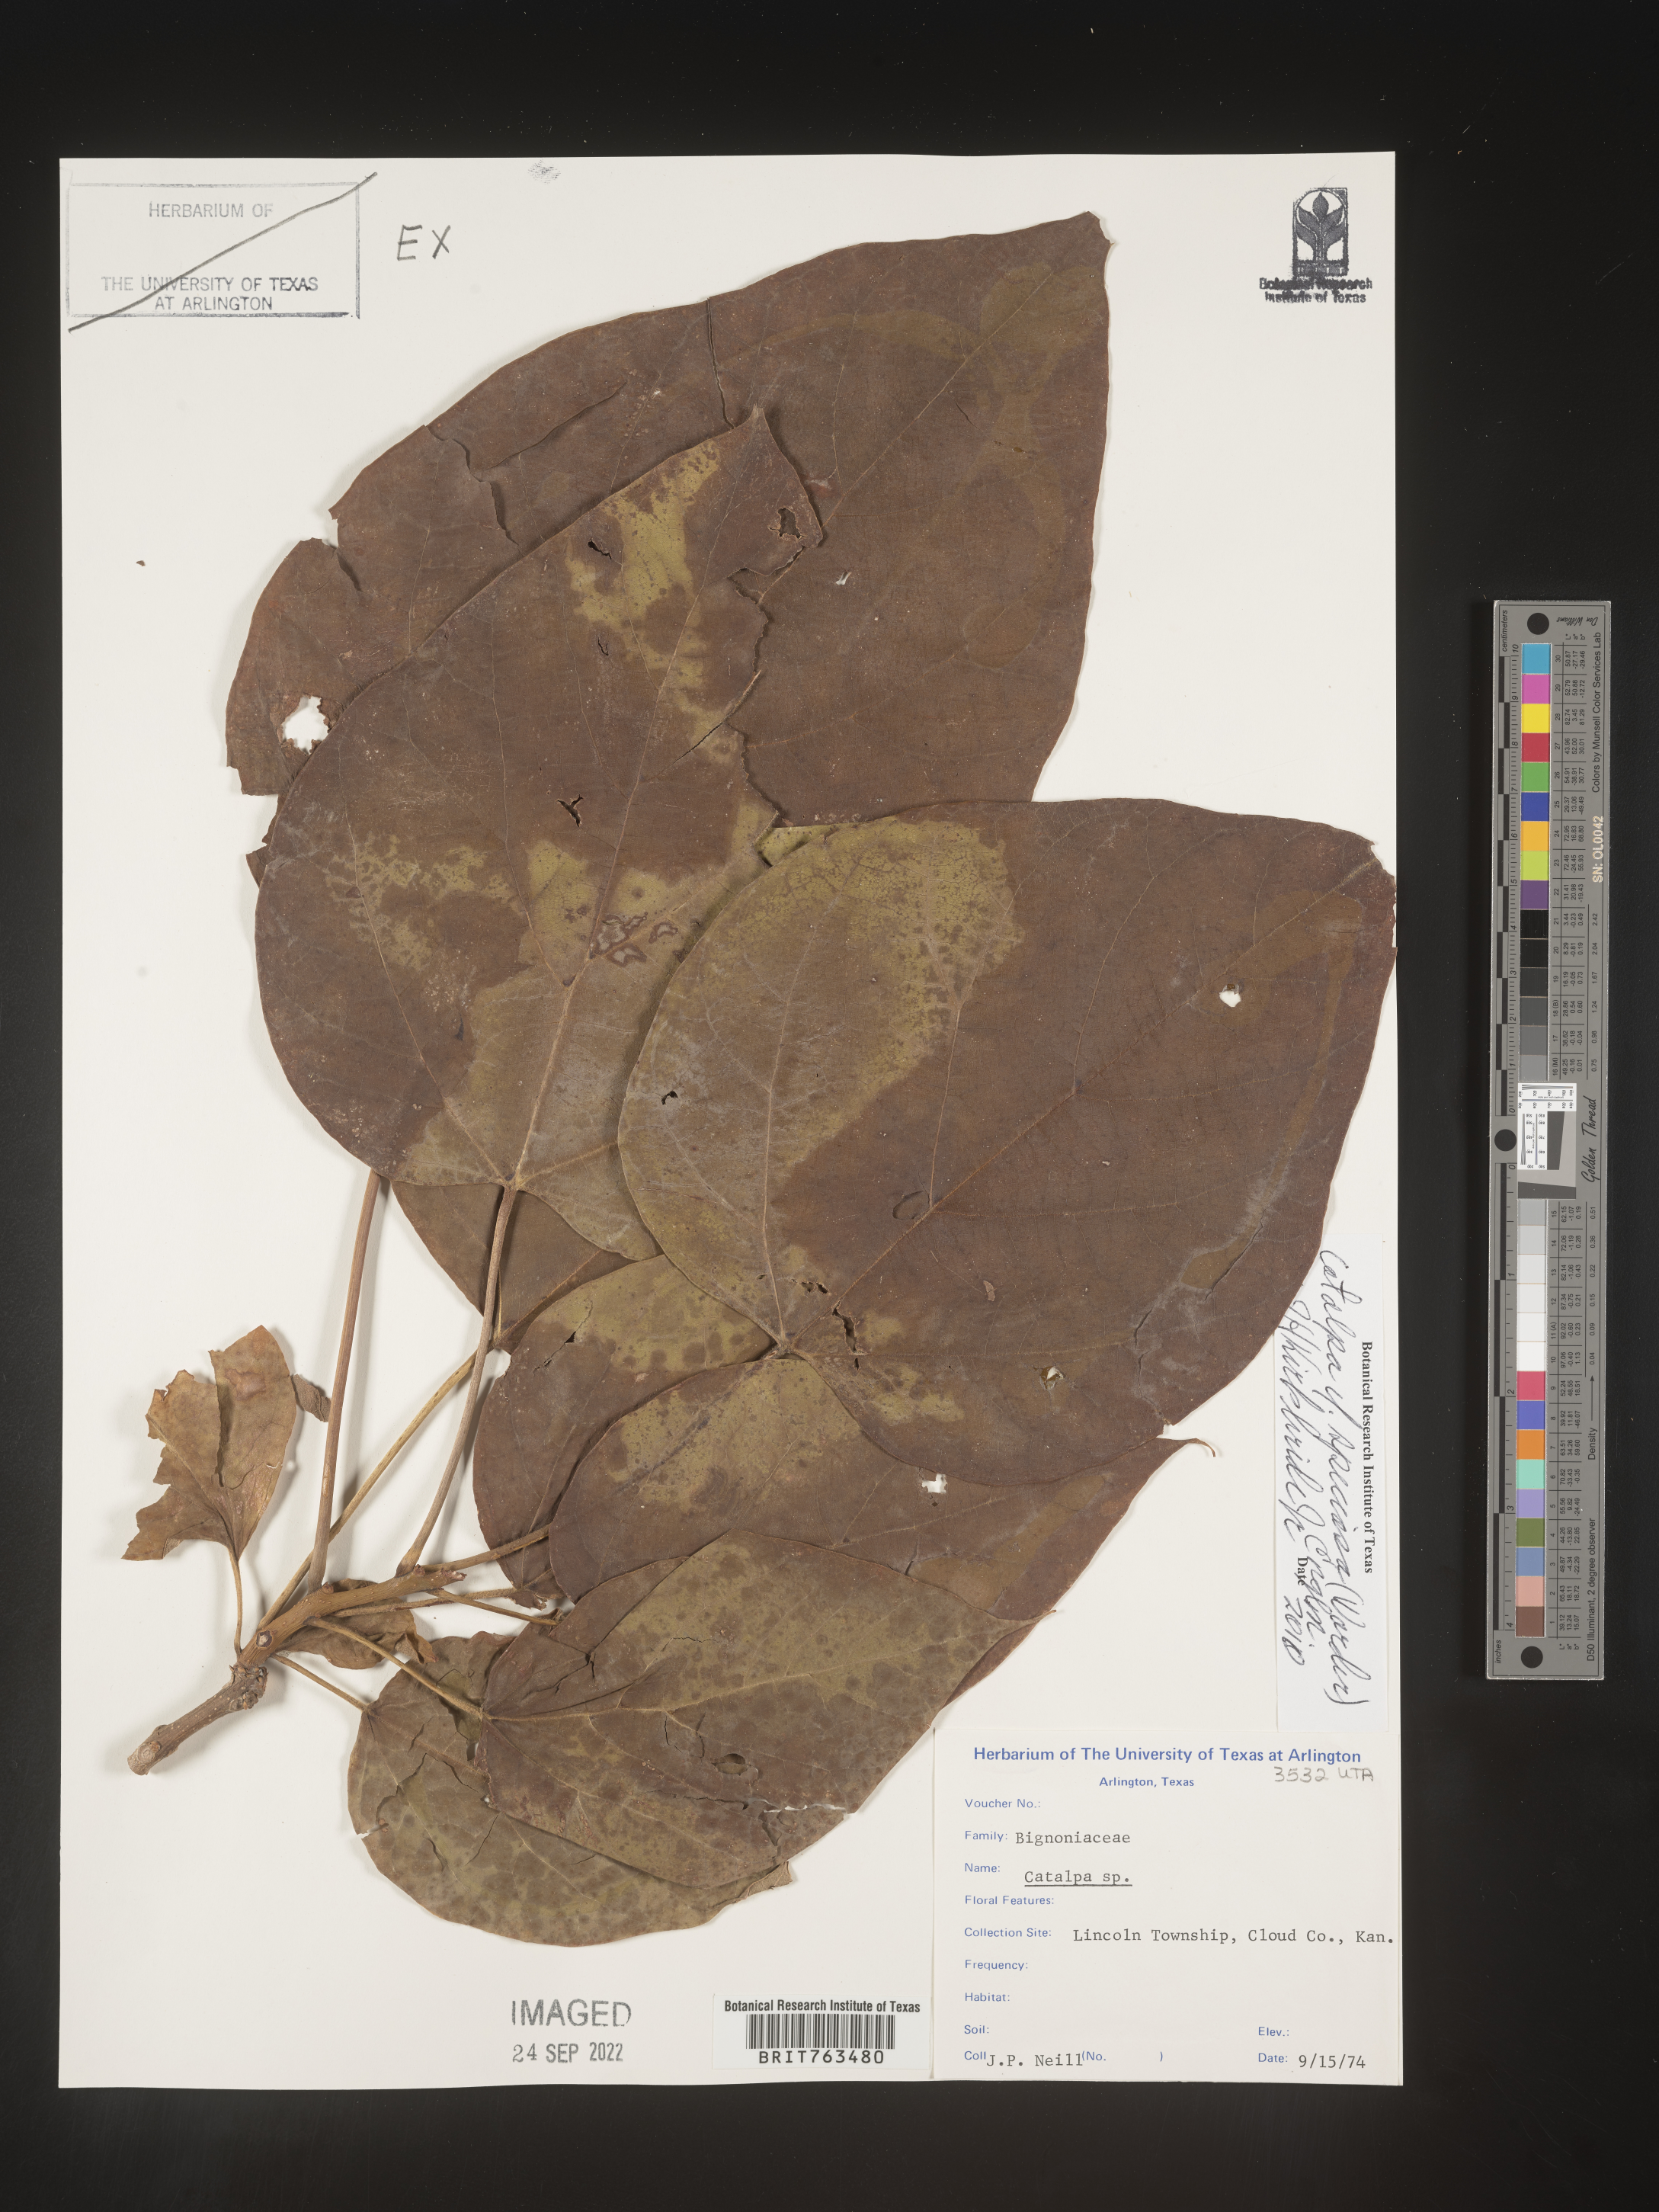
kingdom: Plantae
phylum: Tracheophyta
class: Magnoliopsida
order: Lamiales
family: Bignoniaceae
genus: Catalpa
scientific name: Catalpa speciosa
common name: Northern catalpa
